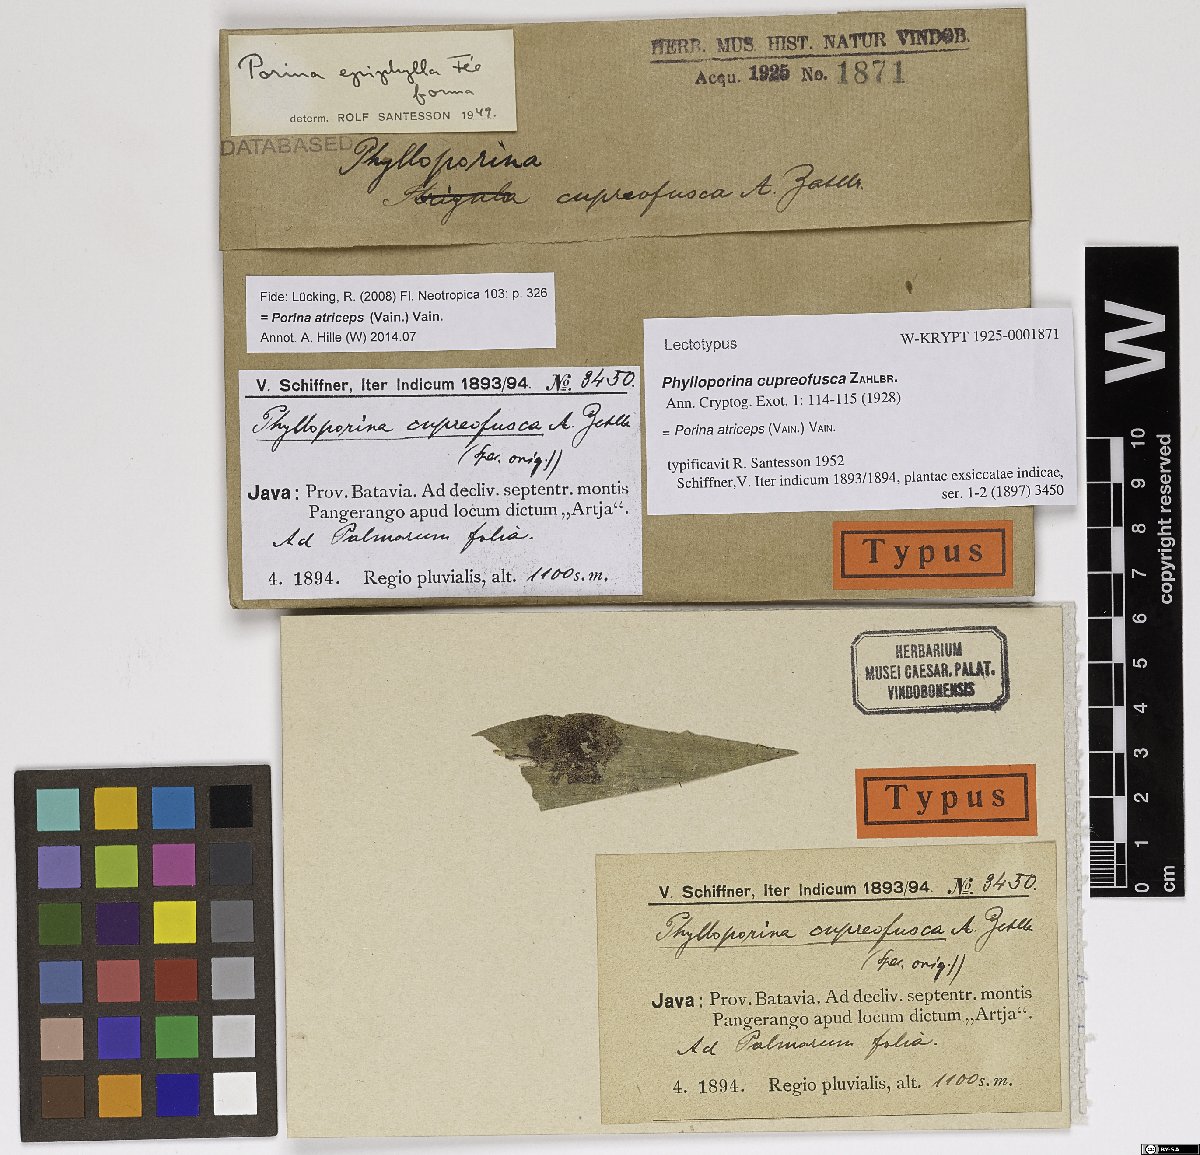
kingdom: Fungi
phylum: Ascomycota
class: Lecanoromycetes
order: Pertusariales
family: Pertusariaceae
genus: Phylloporina
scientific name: Phylloporina cupreofusca
